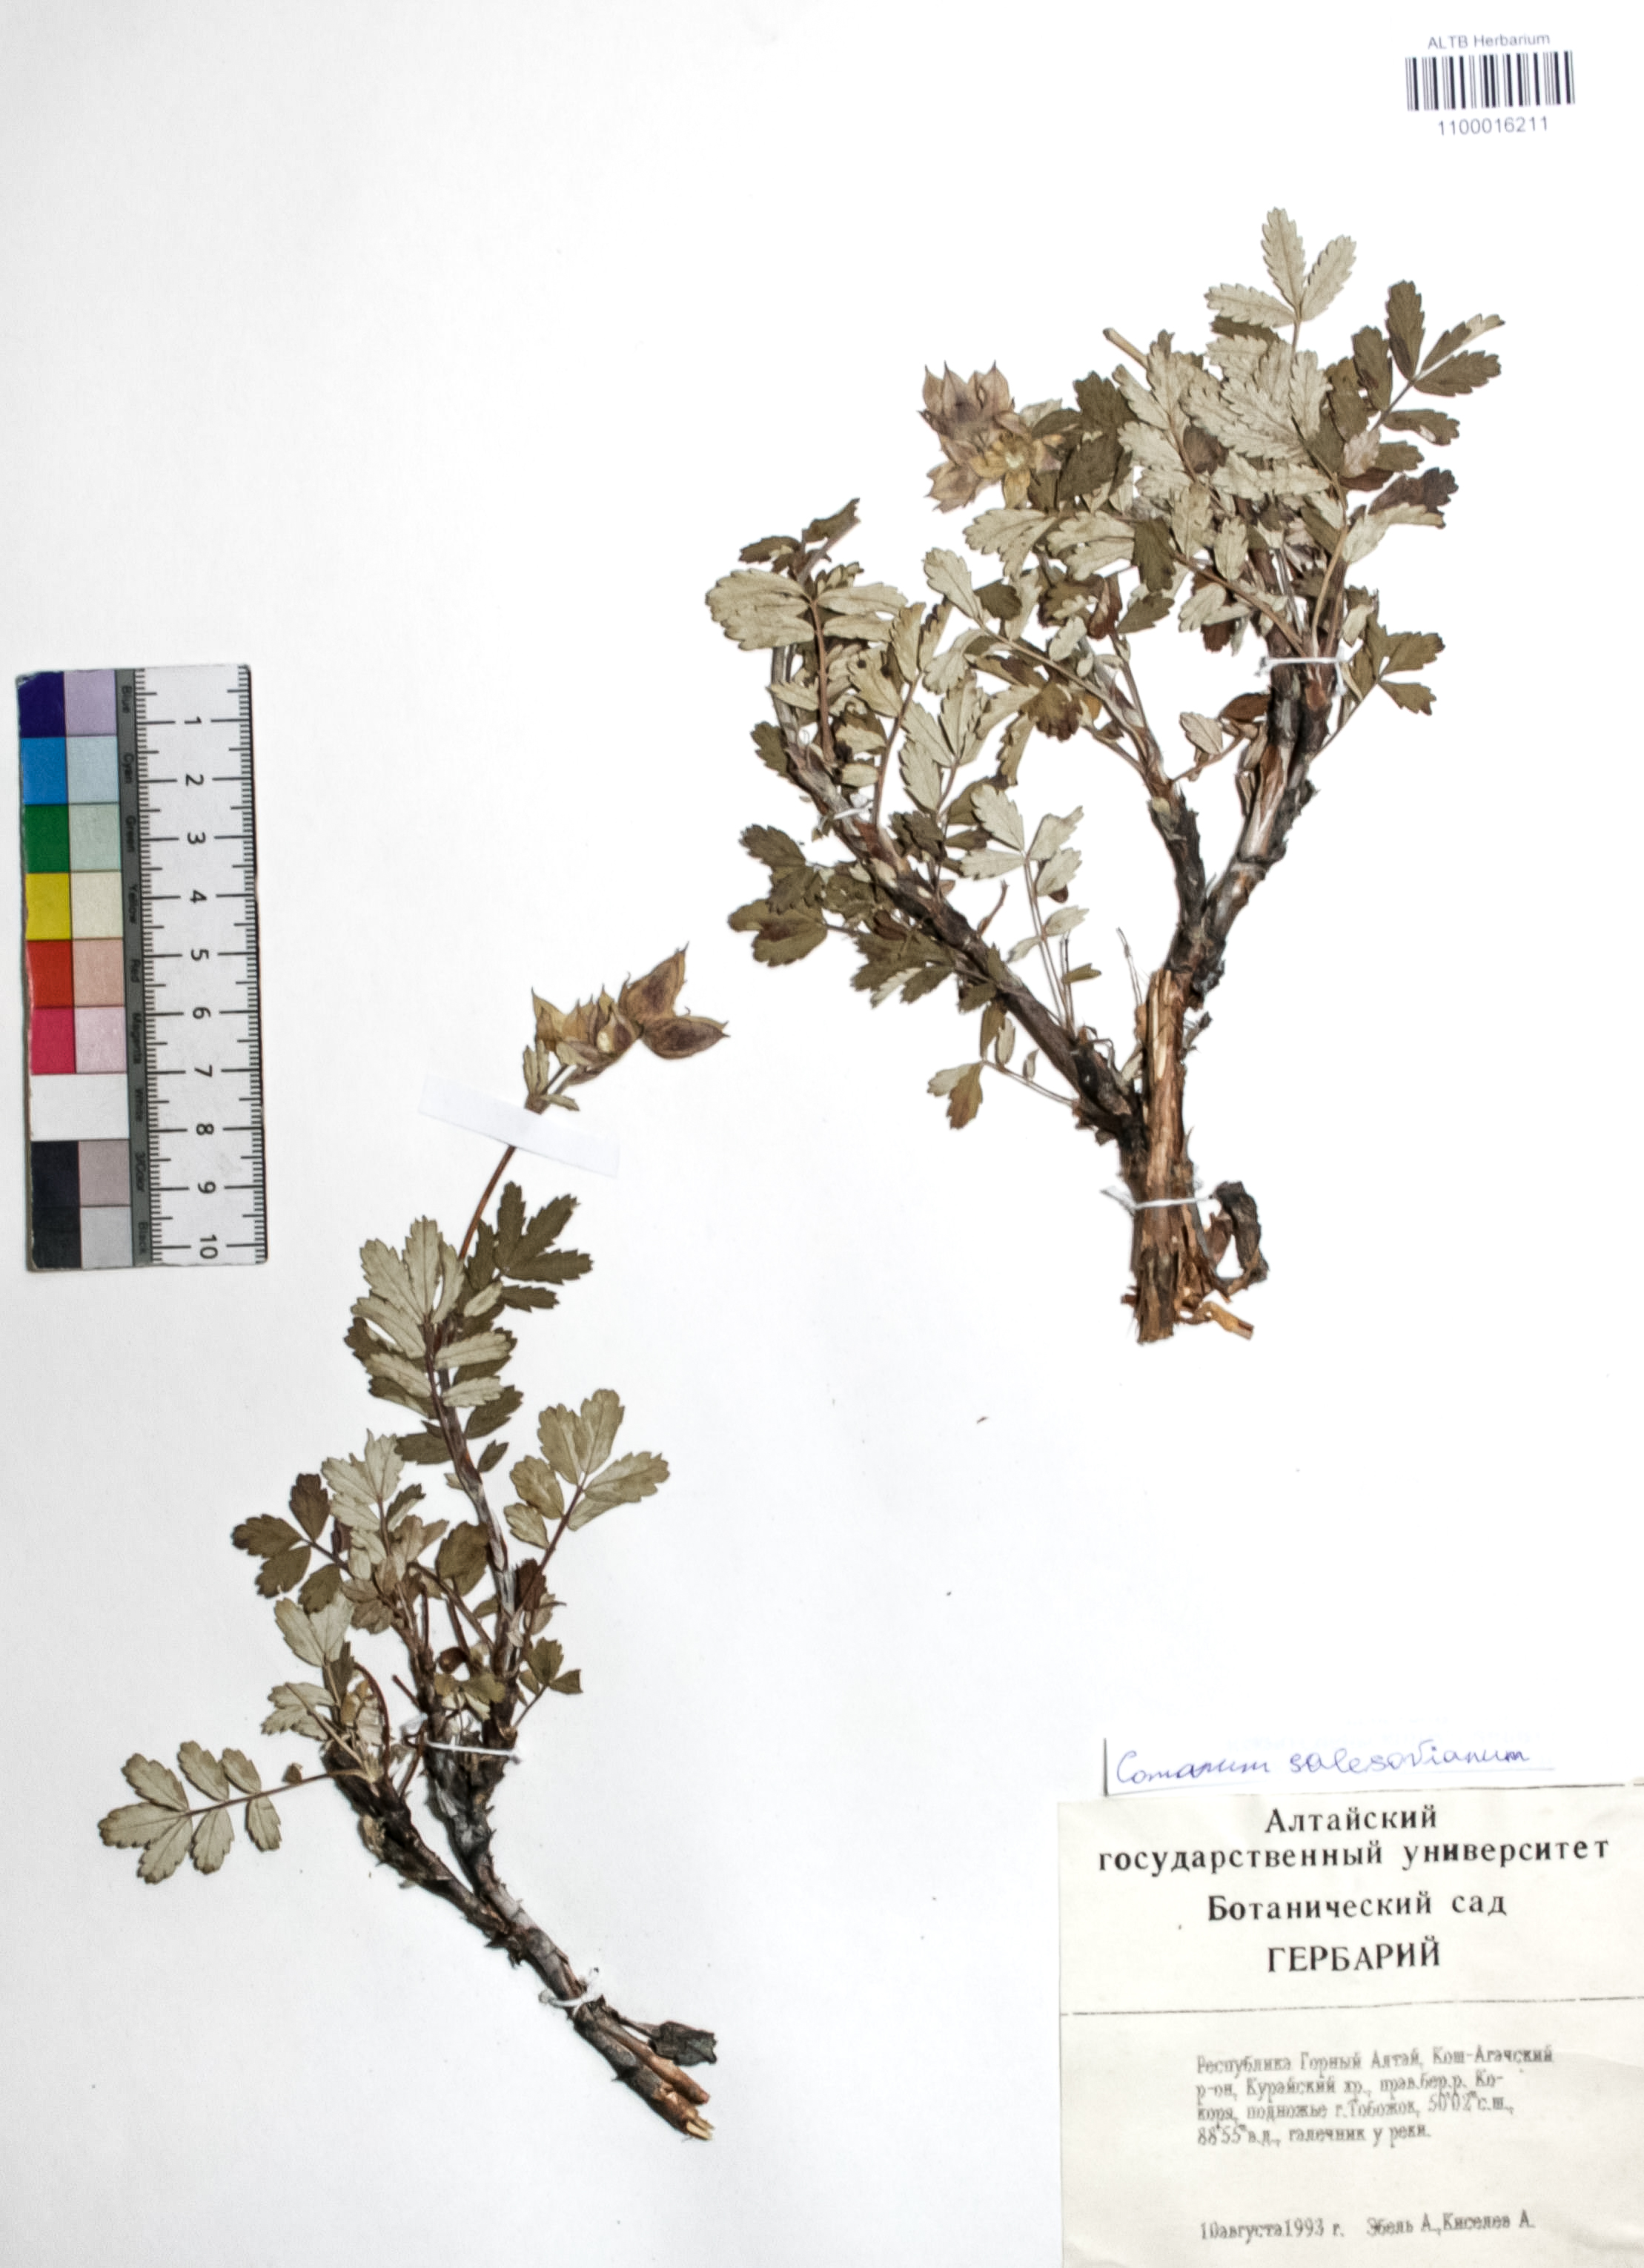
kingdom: Plantae
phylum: Tracheophyta
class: Magnoliopsida
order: Rosales
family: Rosaceae
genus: Farinopsis
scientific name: Farinopsis salesoviana
